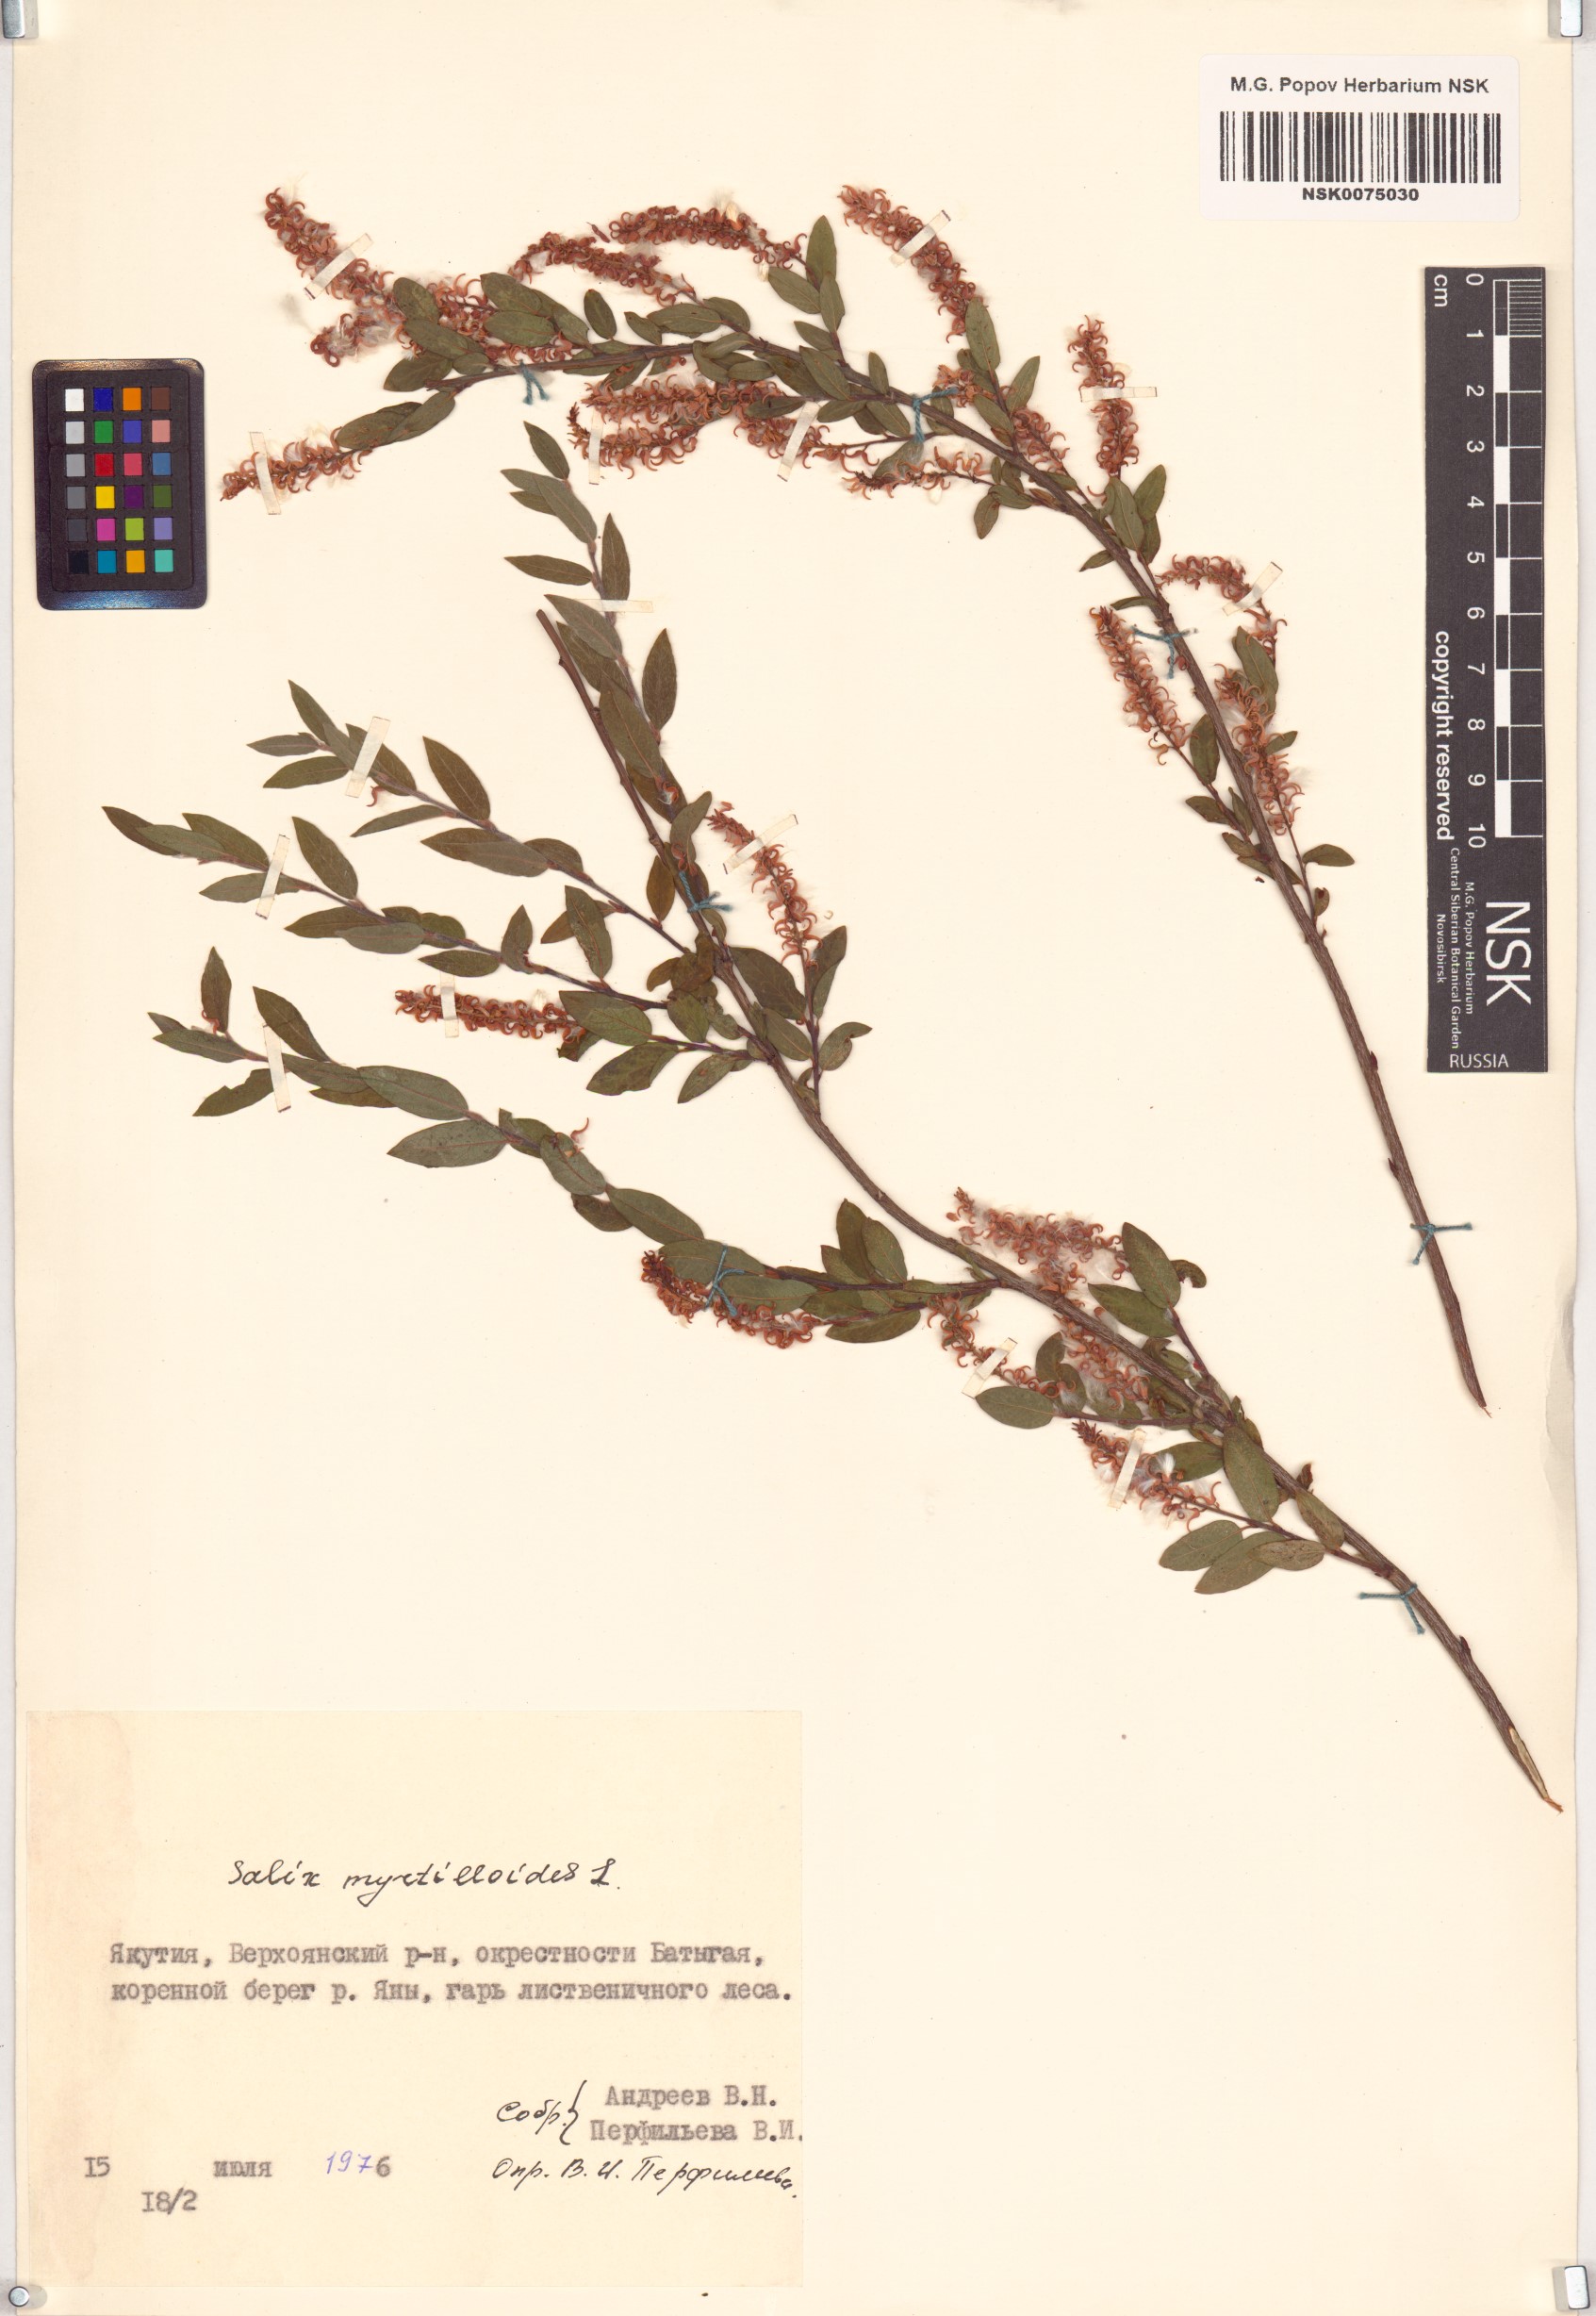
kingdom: Plantae
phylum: Tracheophyta
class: Magnoliopsida
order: Malpighiales
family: Salicaceae
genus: Salix
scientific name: Salix myrtilloides
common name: Myrtle-leaved willow
